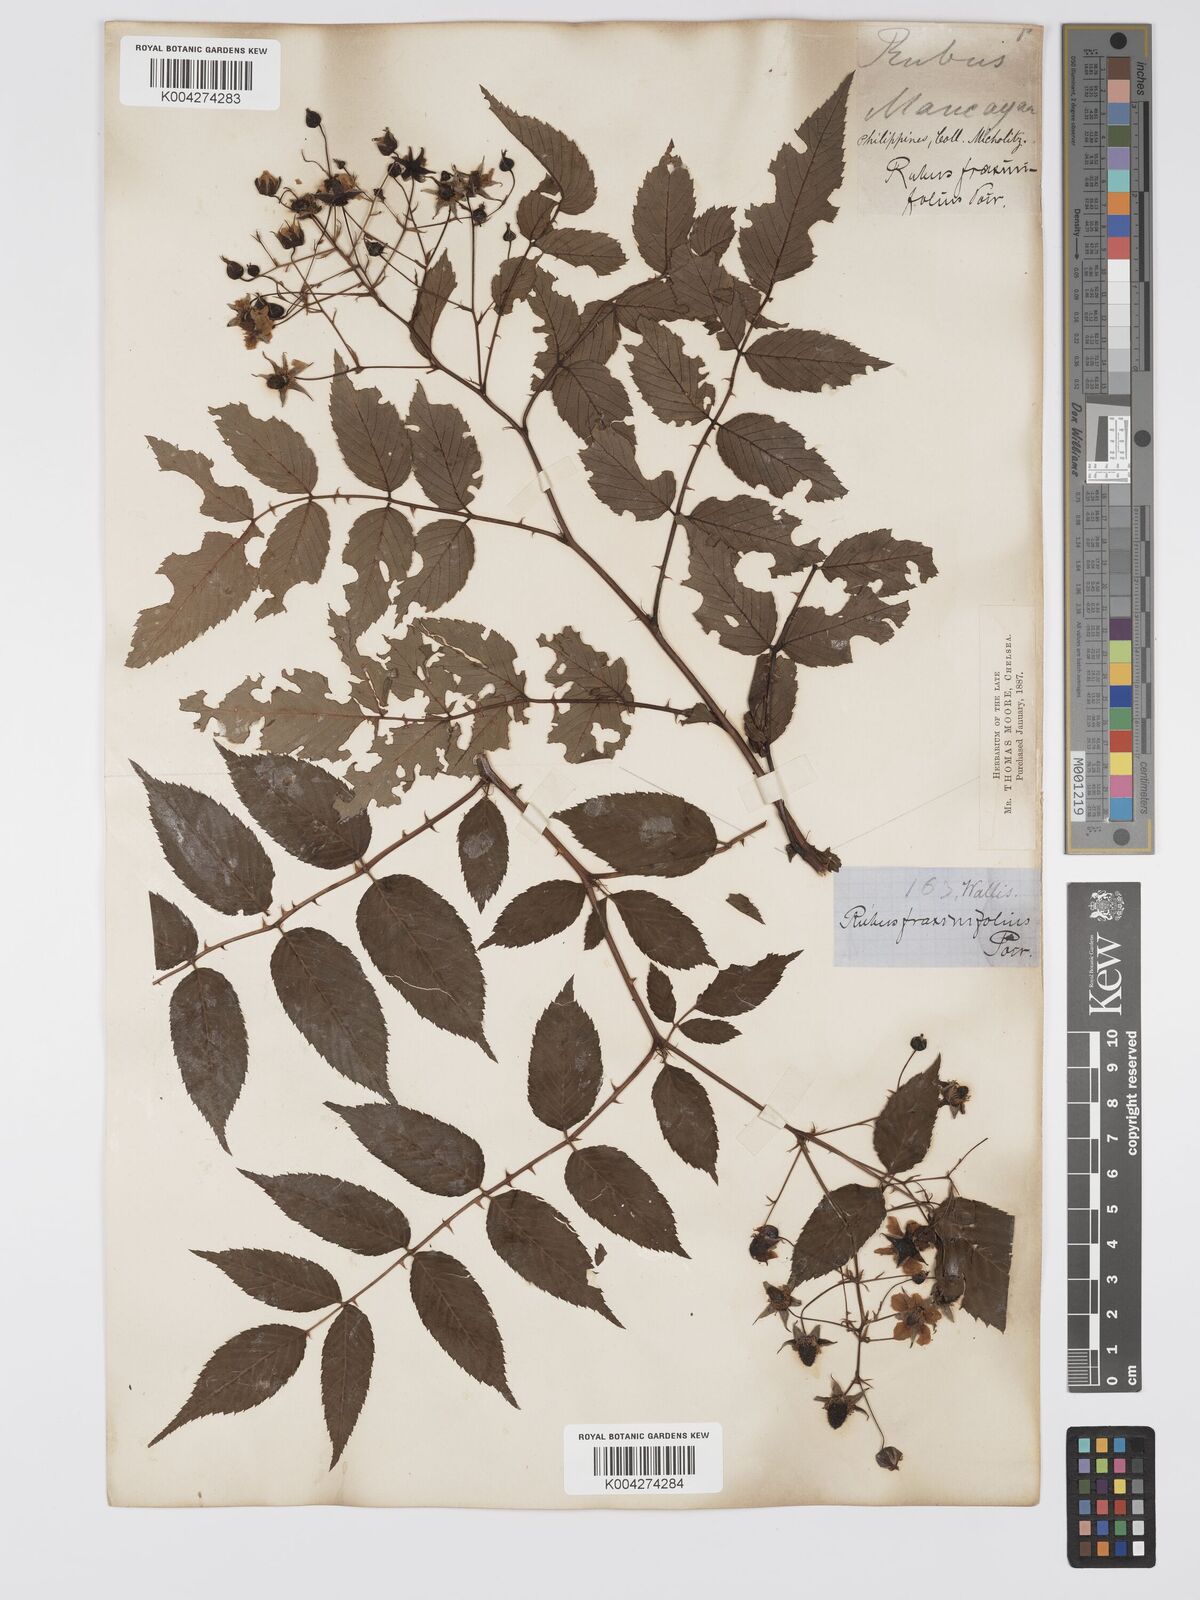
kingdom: Plantae
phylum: Tracheophyta
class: Magnoliopsida
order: Rosales
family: Rosaceae
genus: Rubus
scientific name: Rubus fraxinifolius
